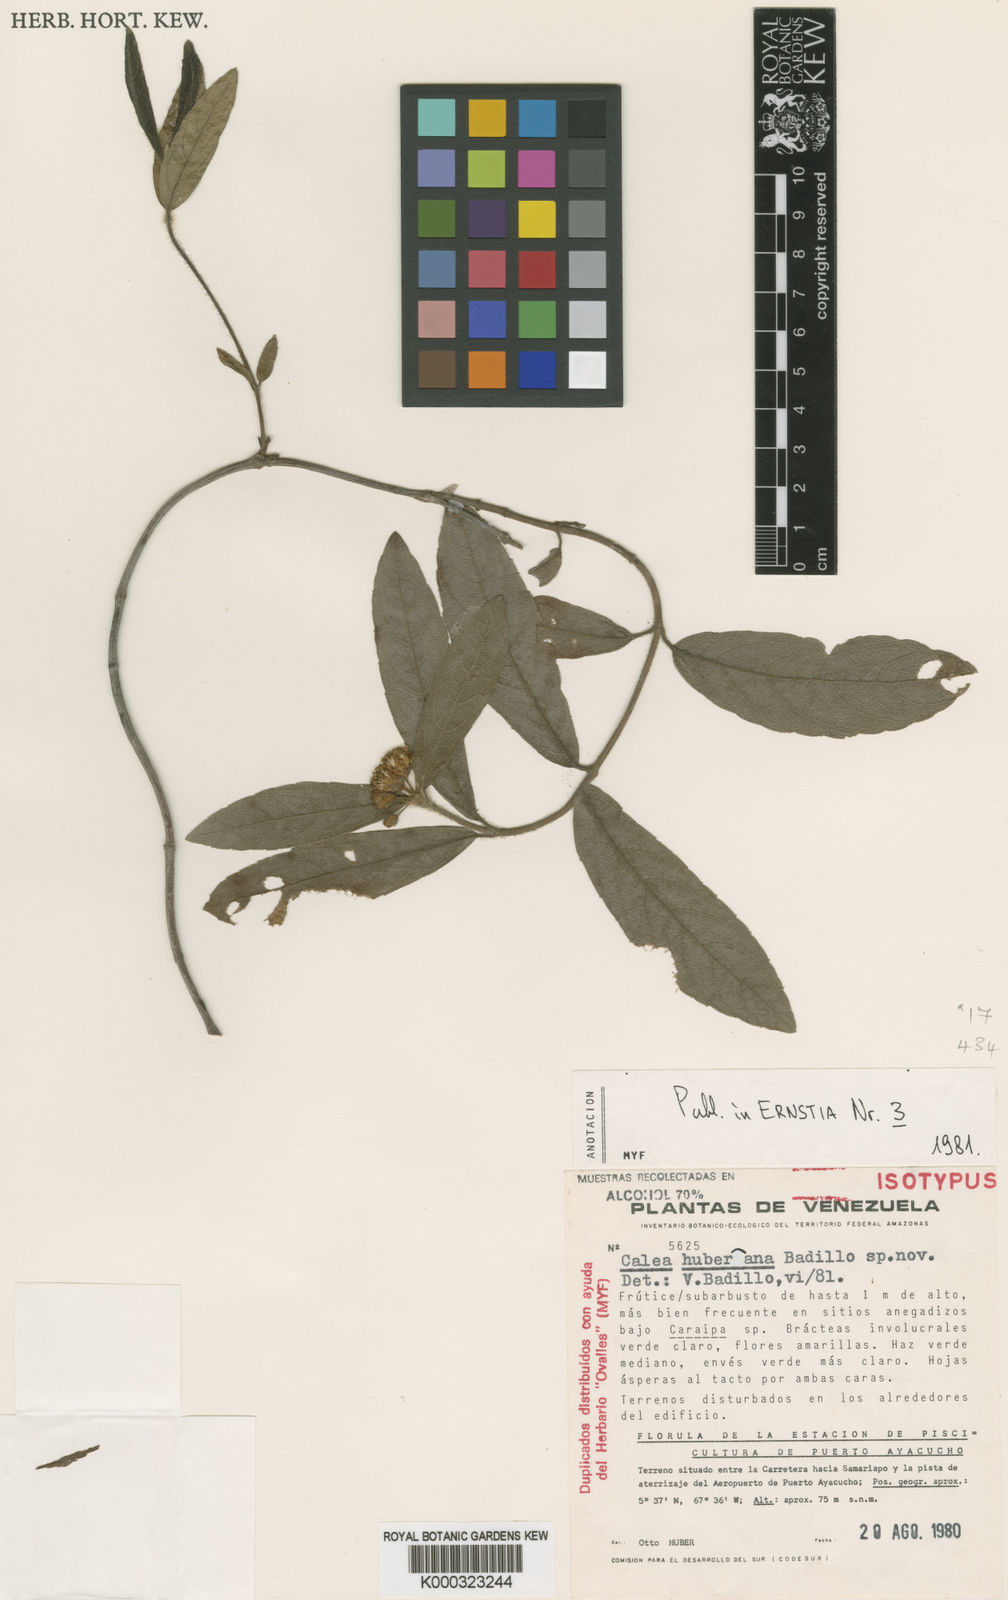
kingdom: Plantae
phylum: Tracheophyta
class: Magnoliopsida
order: Asterales
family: Asteraceae
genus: Calea
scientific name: Calea tolimana
